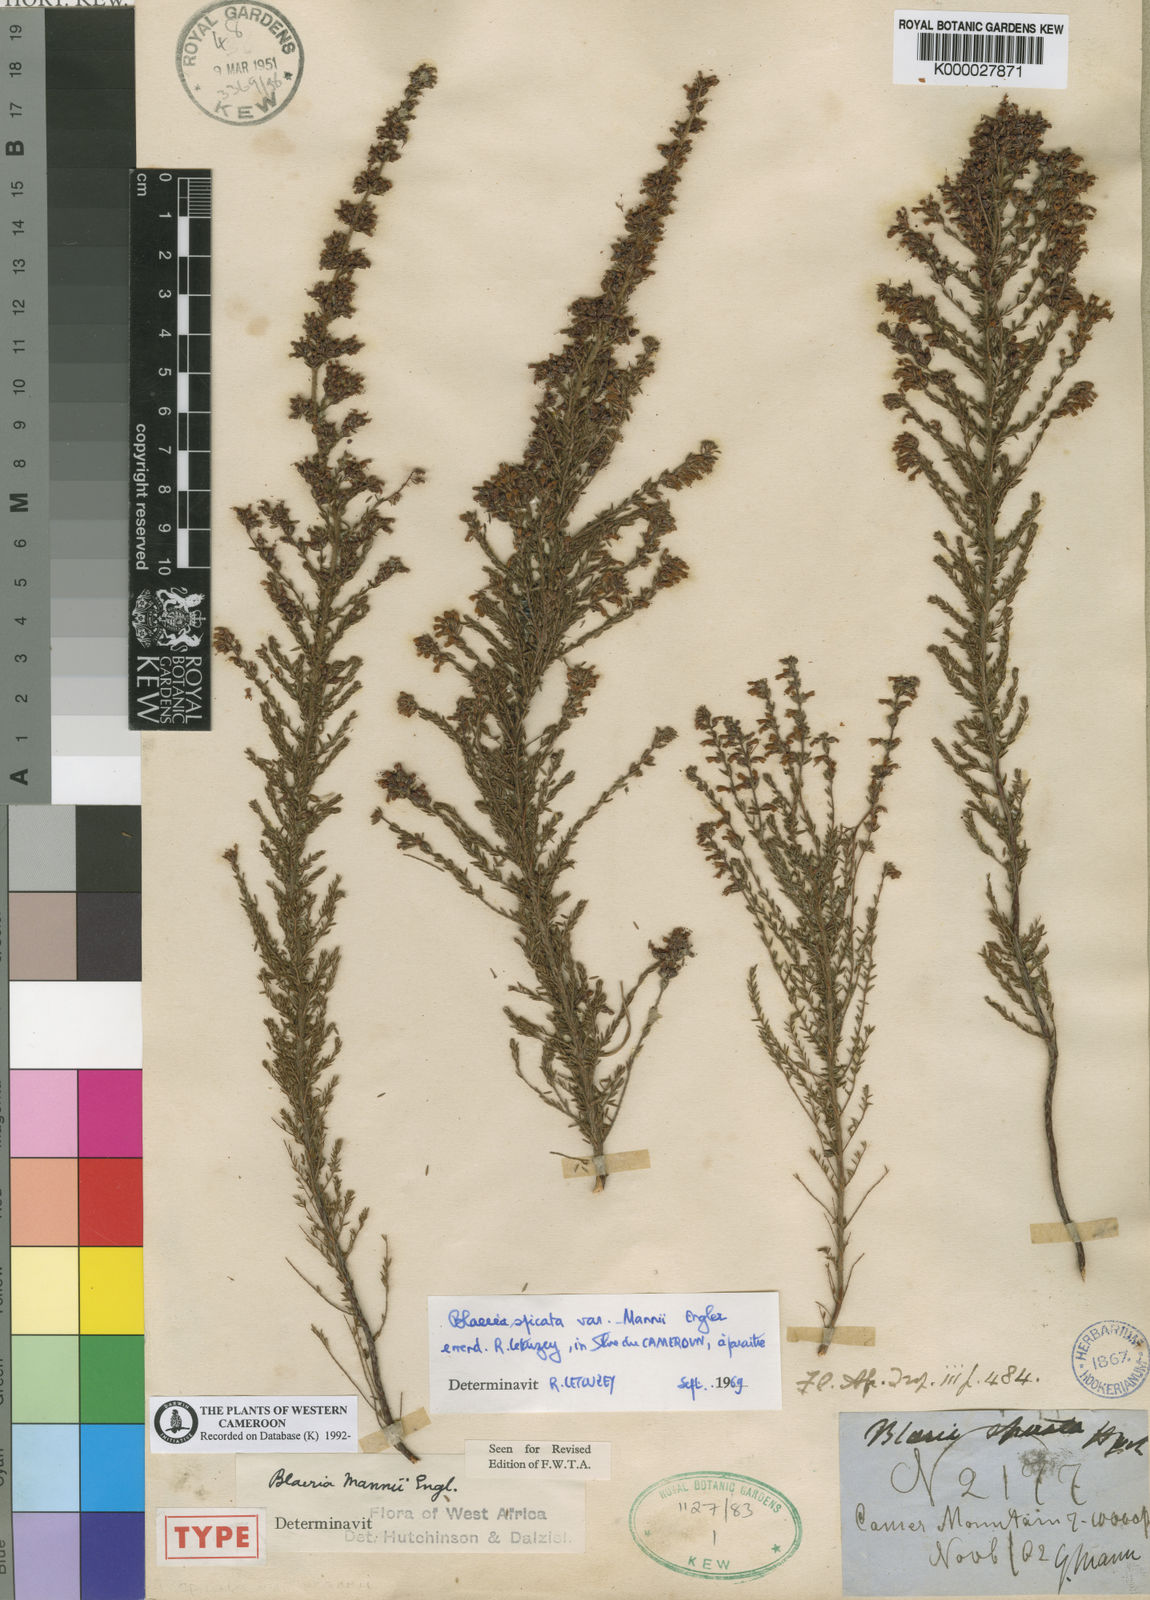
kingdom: Plantae
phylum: Tracheophyta
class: Magnoliopsida
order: Ericales
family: Ericaceae
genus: Erica
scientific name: Erica silvatica
